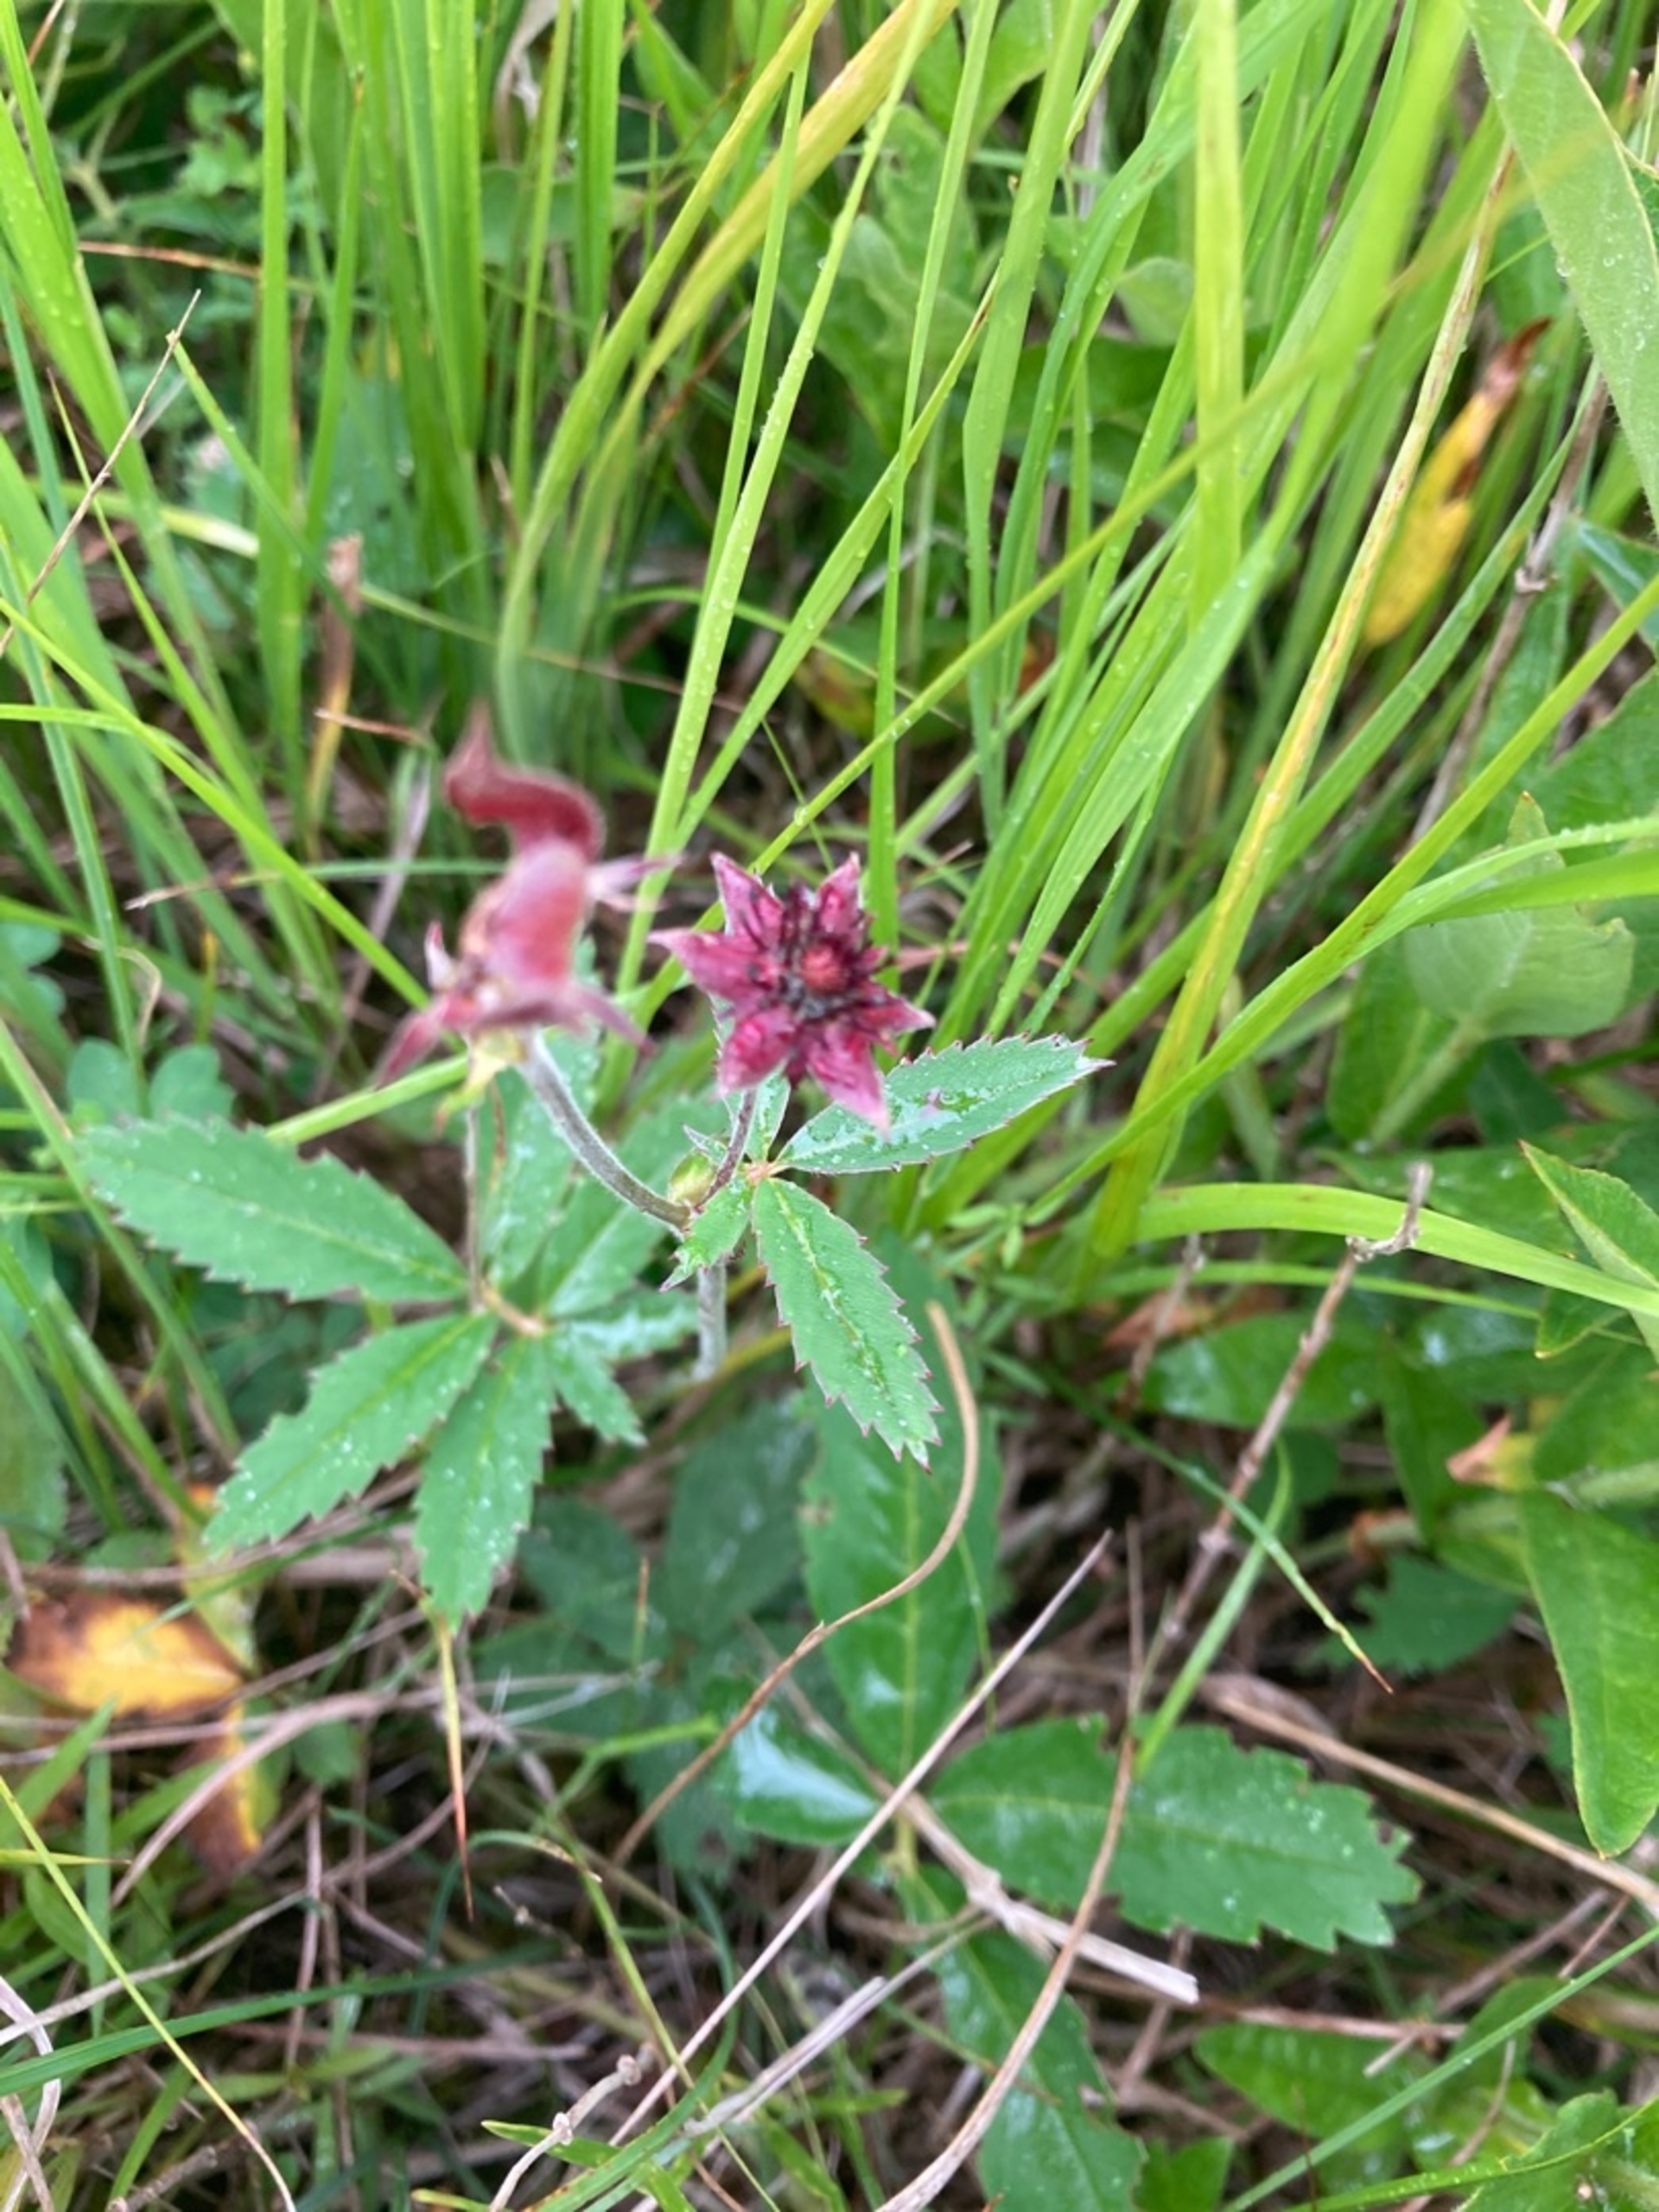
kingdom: Plantae
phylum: Tracheophyta
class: Magnoliopsida
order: Rosales
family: Rosaceae
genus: Comarum
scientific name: Comarum palustre
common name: Kragefod
